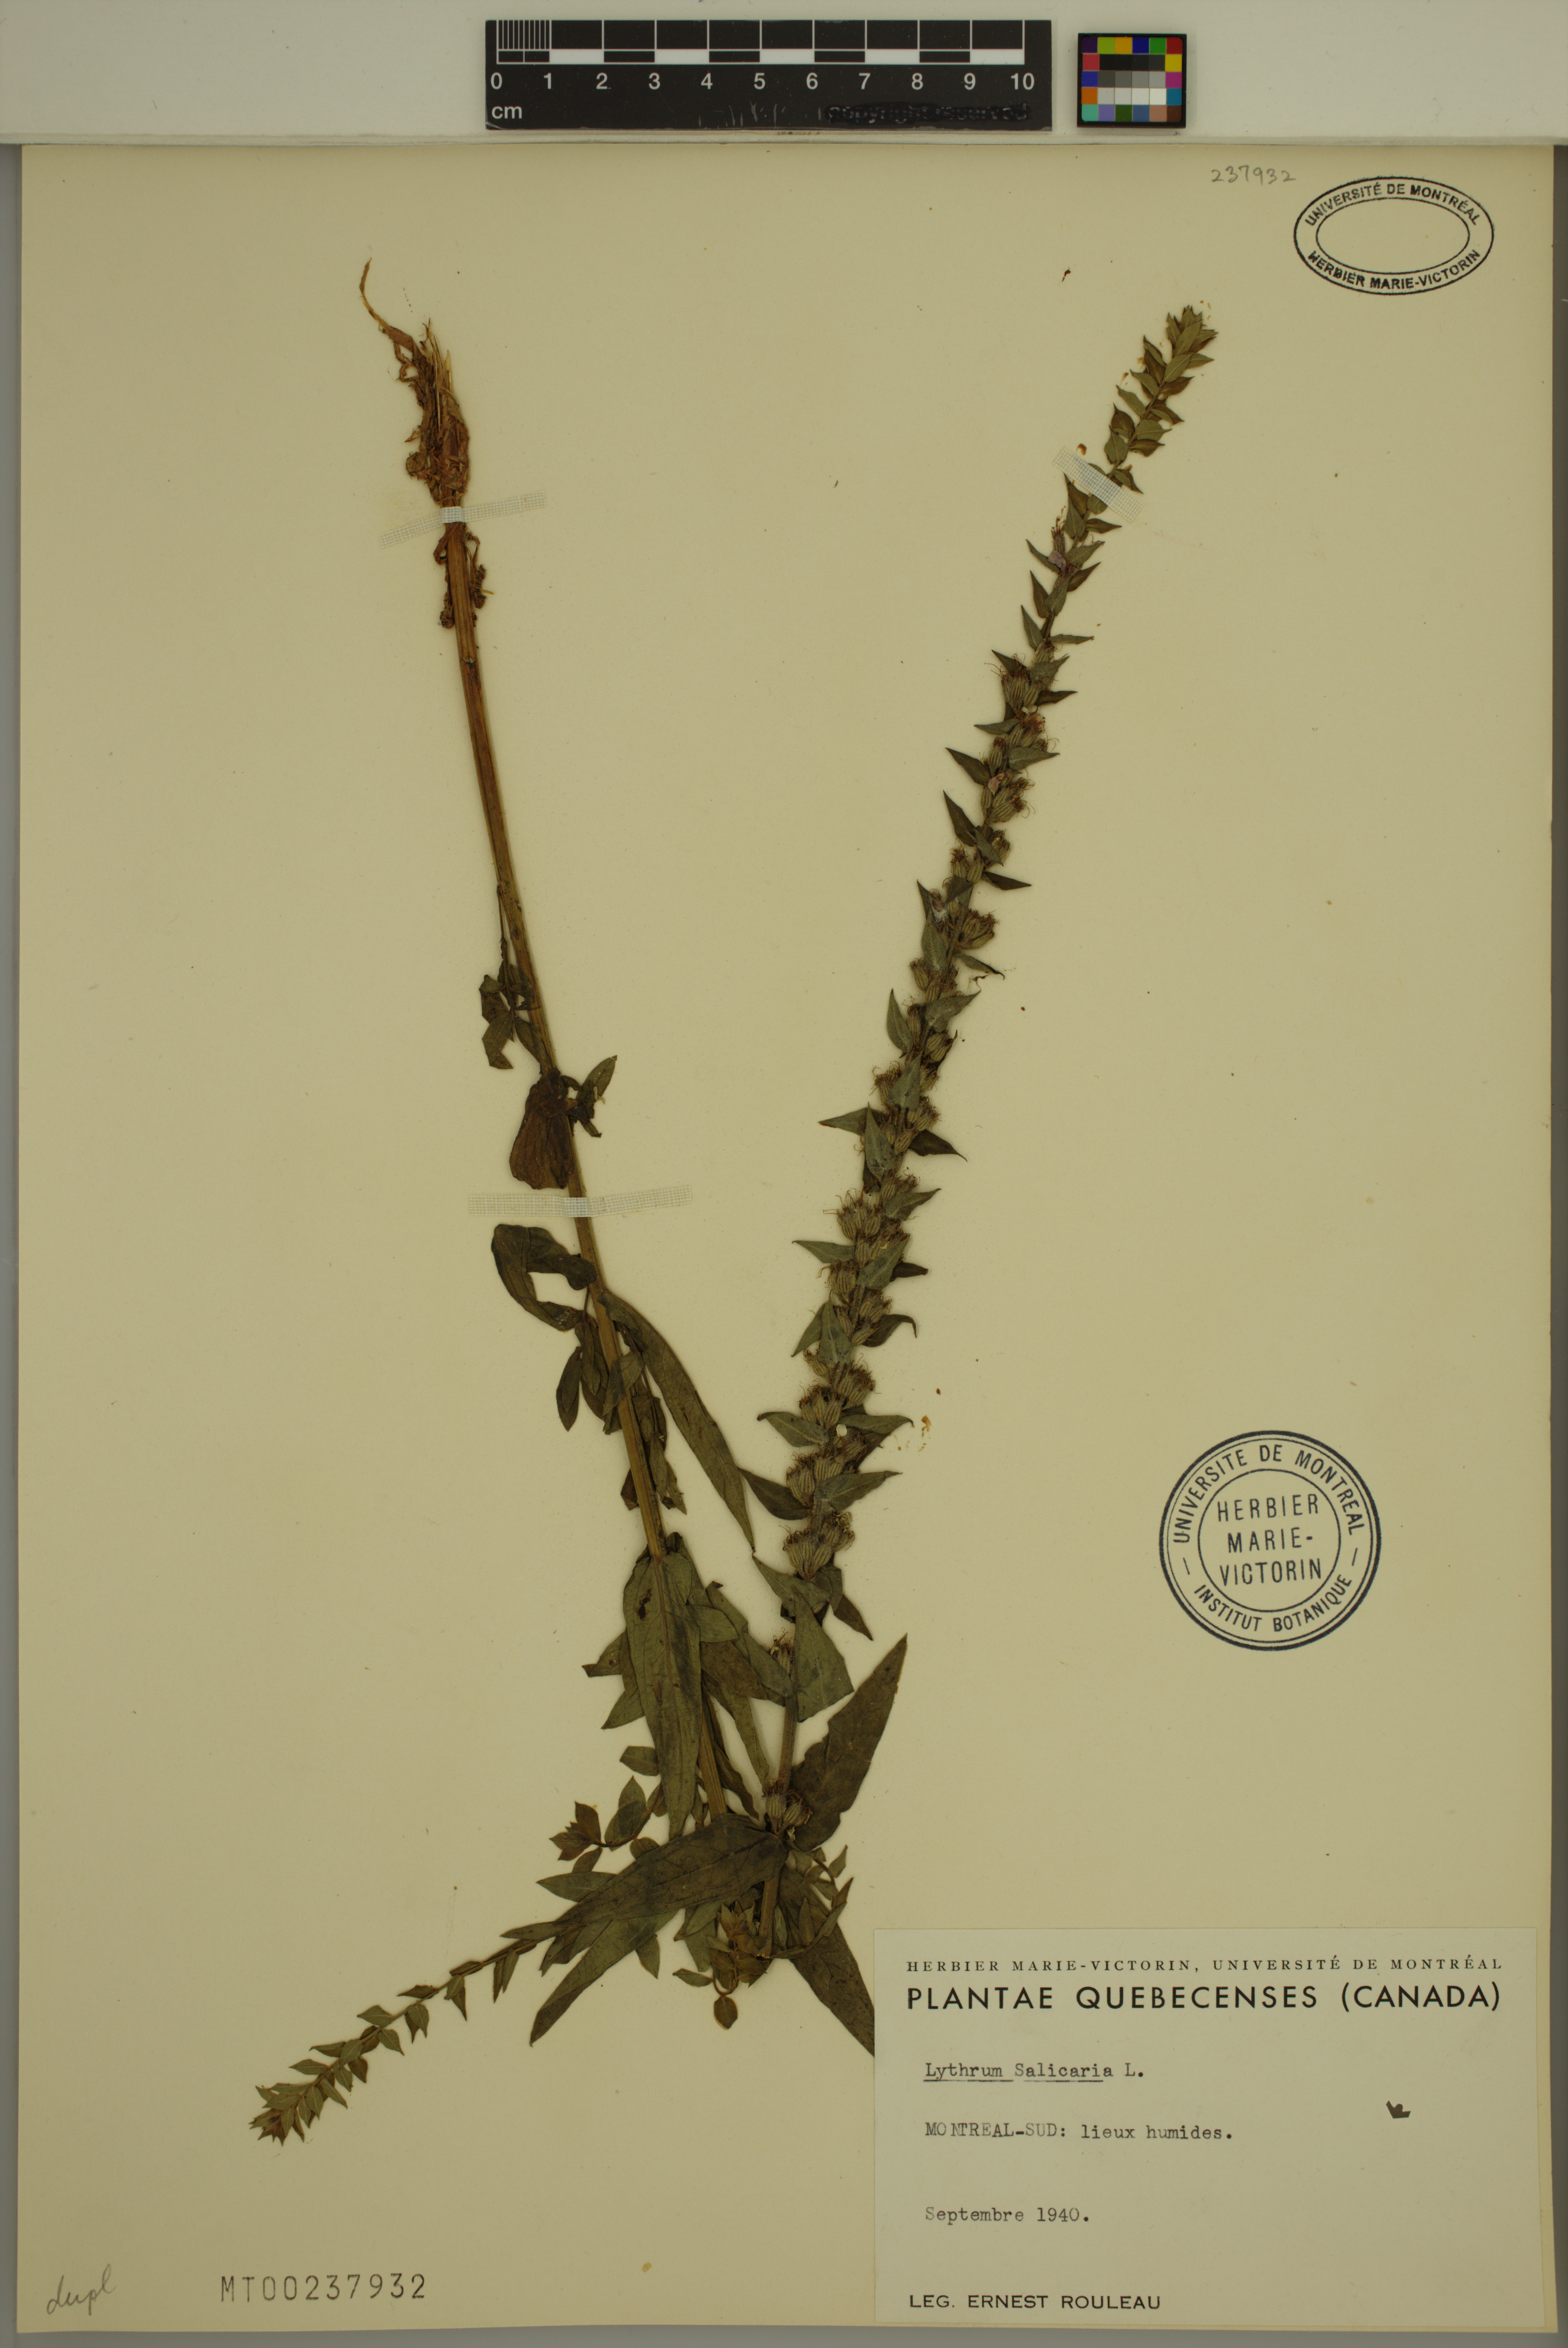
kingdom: Plantae
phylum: Tracheophyta
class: Magnoliopsida
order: Myrtales
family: Lythraceae
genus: Lythrum
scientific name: Lythrum salicaria
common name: Purple loosestrife
